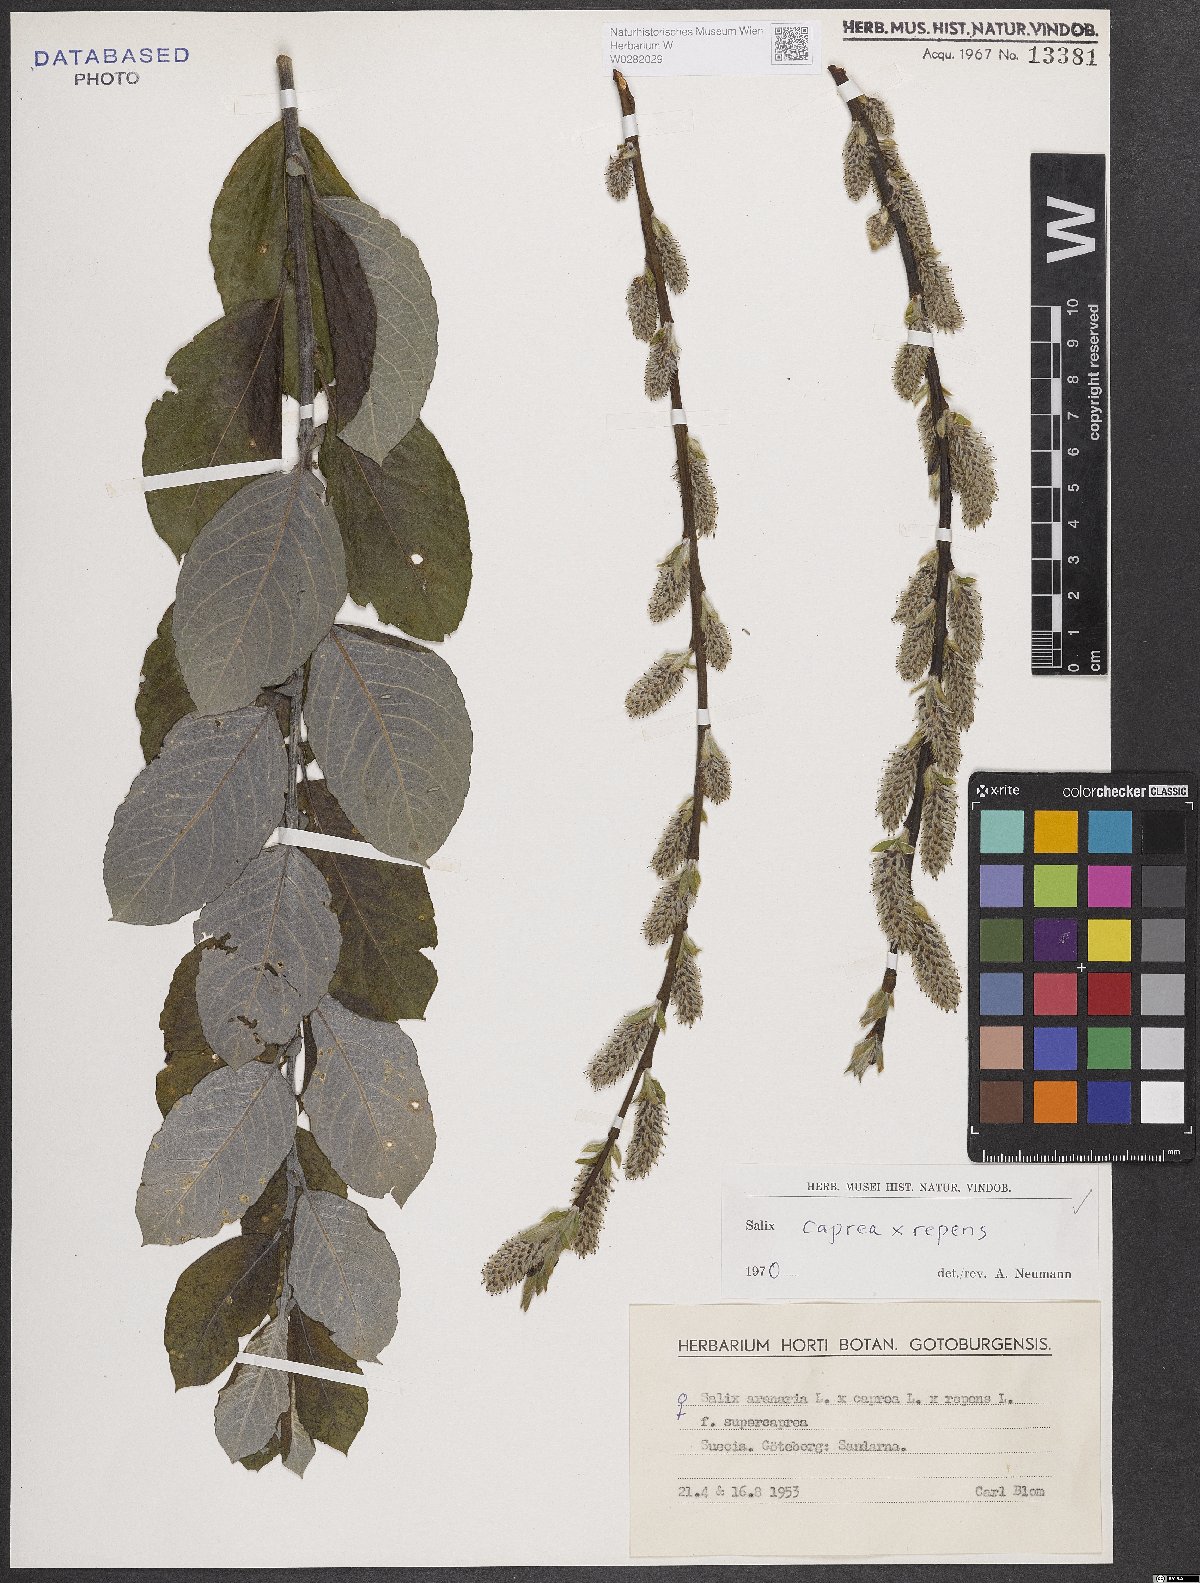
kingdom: Plantae
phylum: Tracheophyta
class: Magnoliopsida
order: Malpighiales
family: Salicaceae
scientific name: Salicaceae
